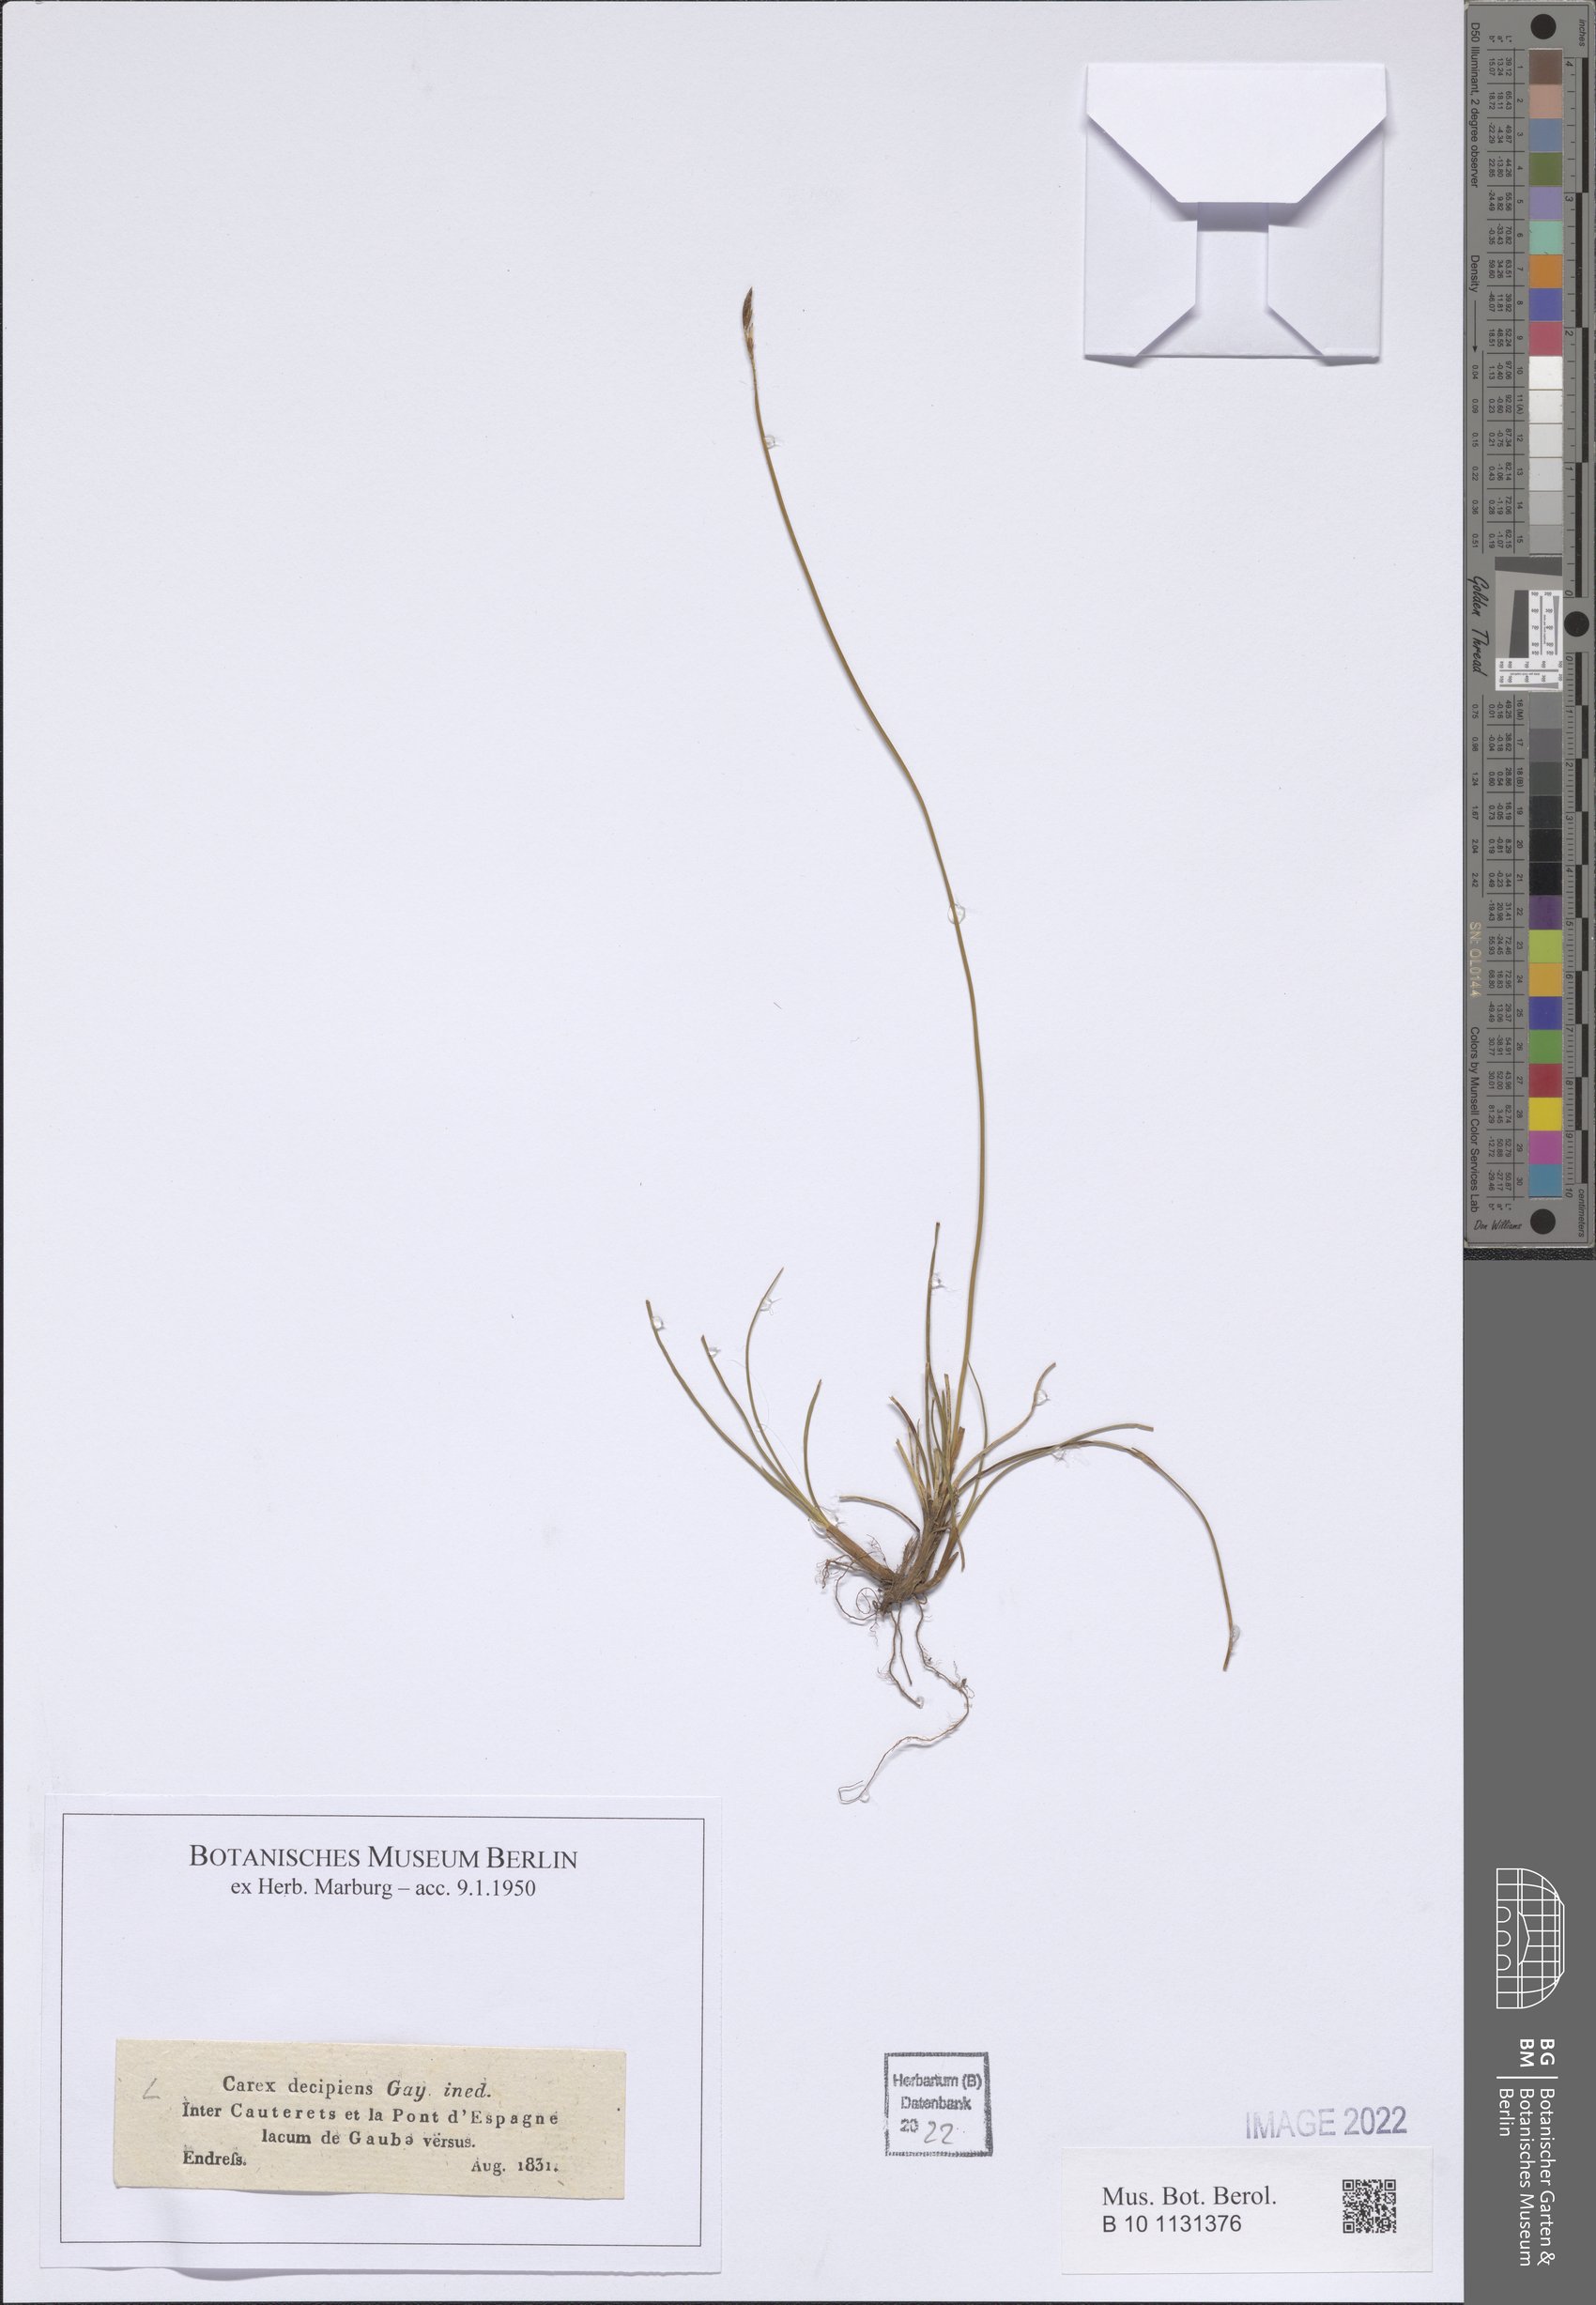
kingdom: Plantae
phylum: Tracheophyta
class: Liliopsida
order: Poales
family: Cyperaceae
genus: Carex
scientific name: Carex macrostylos
